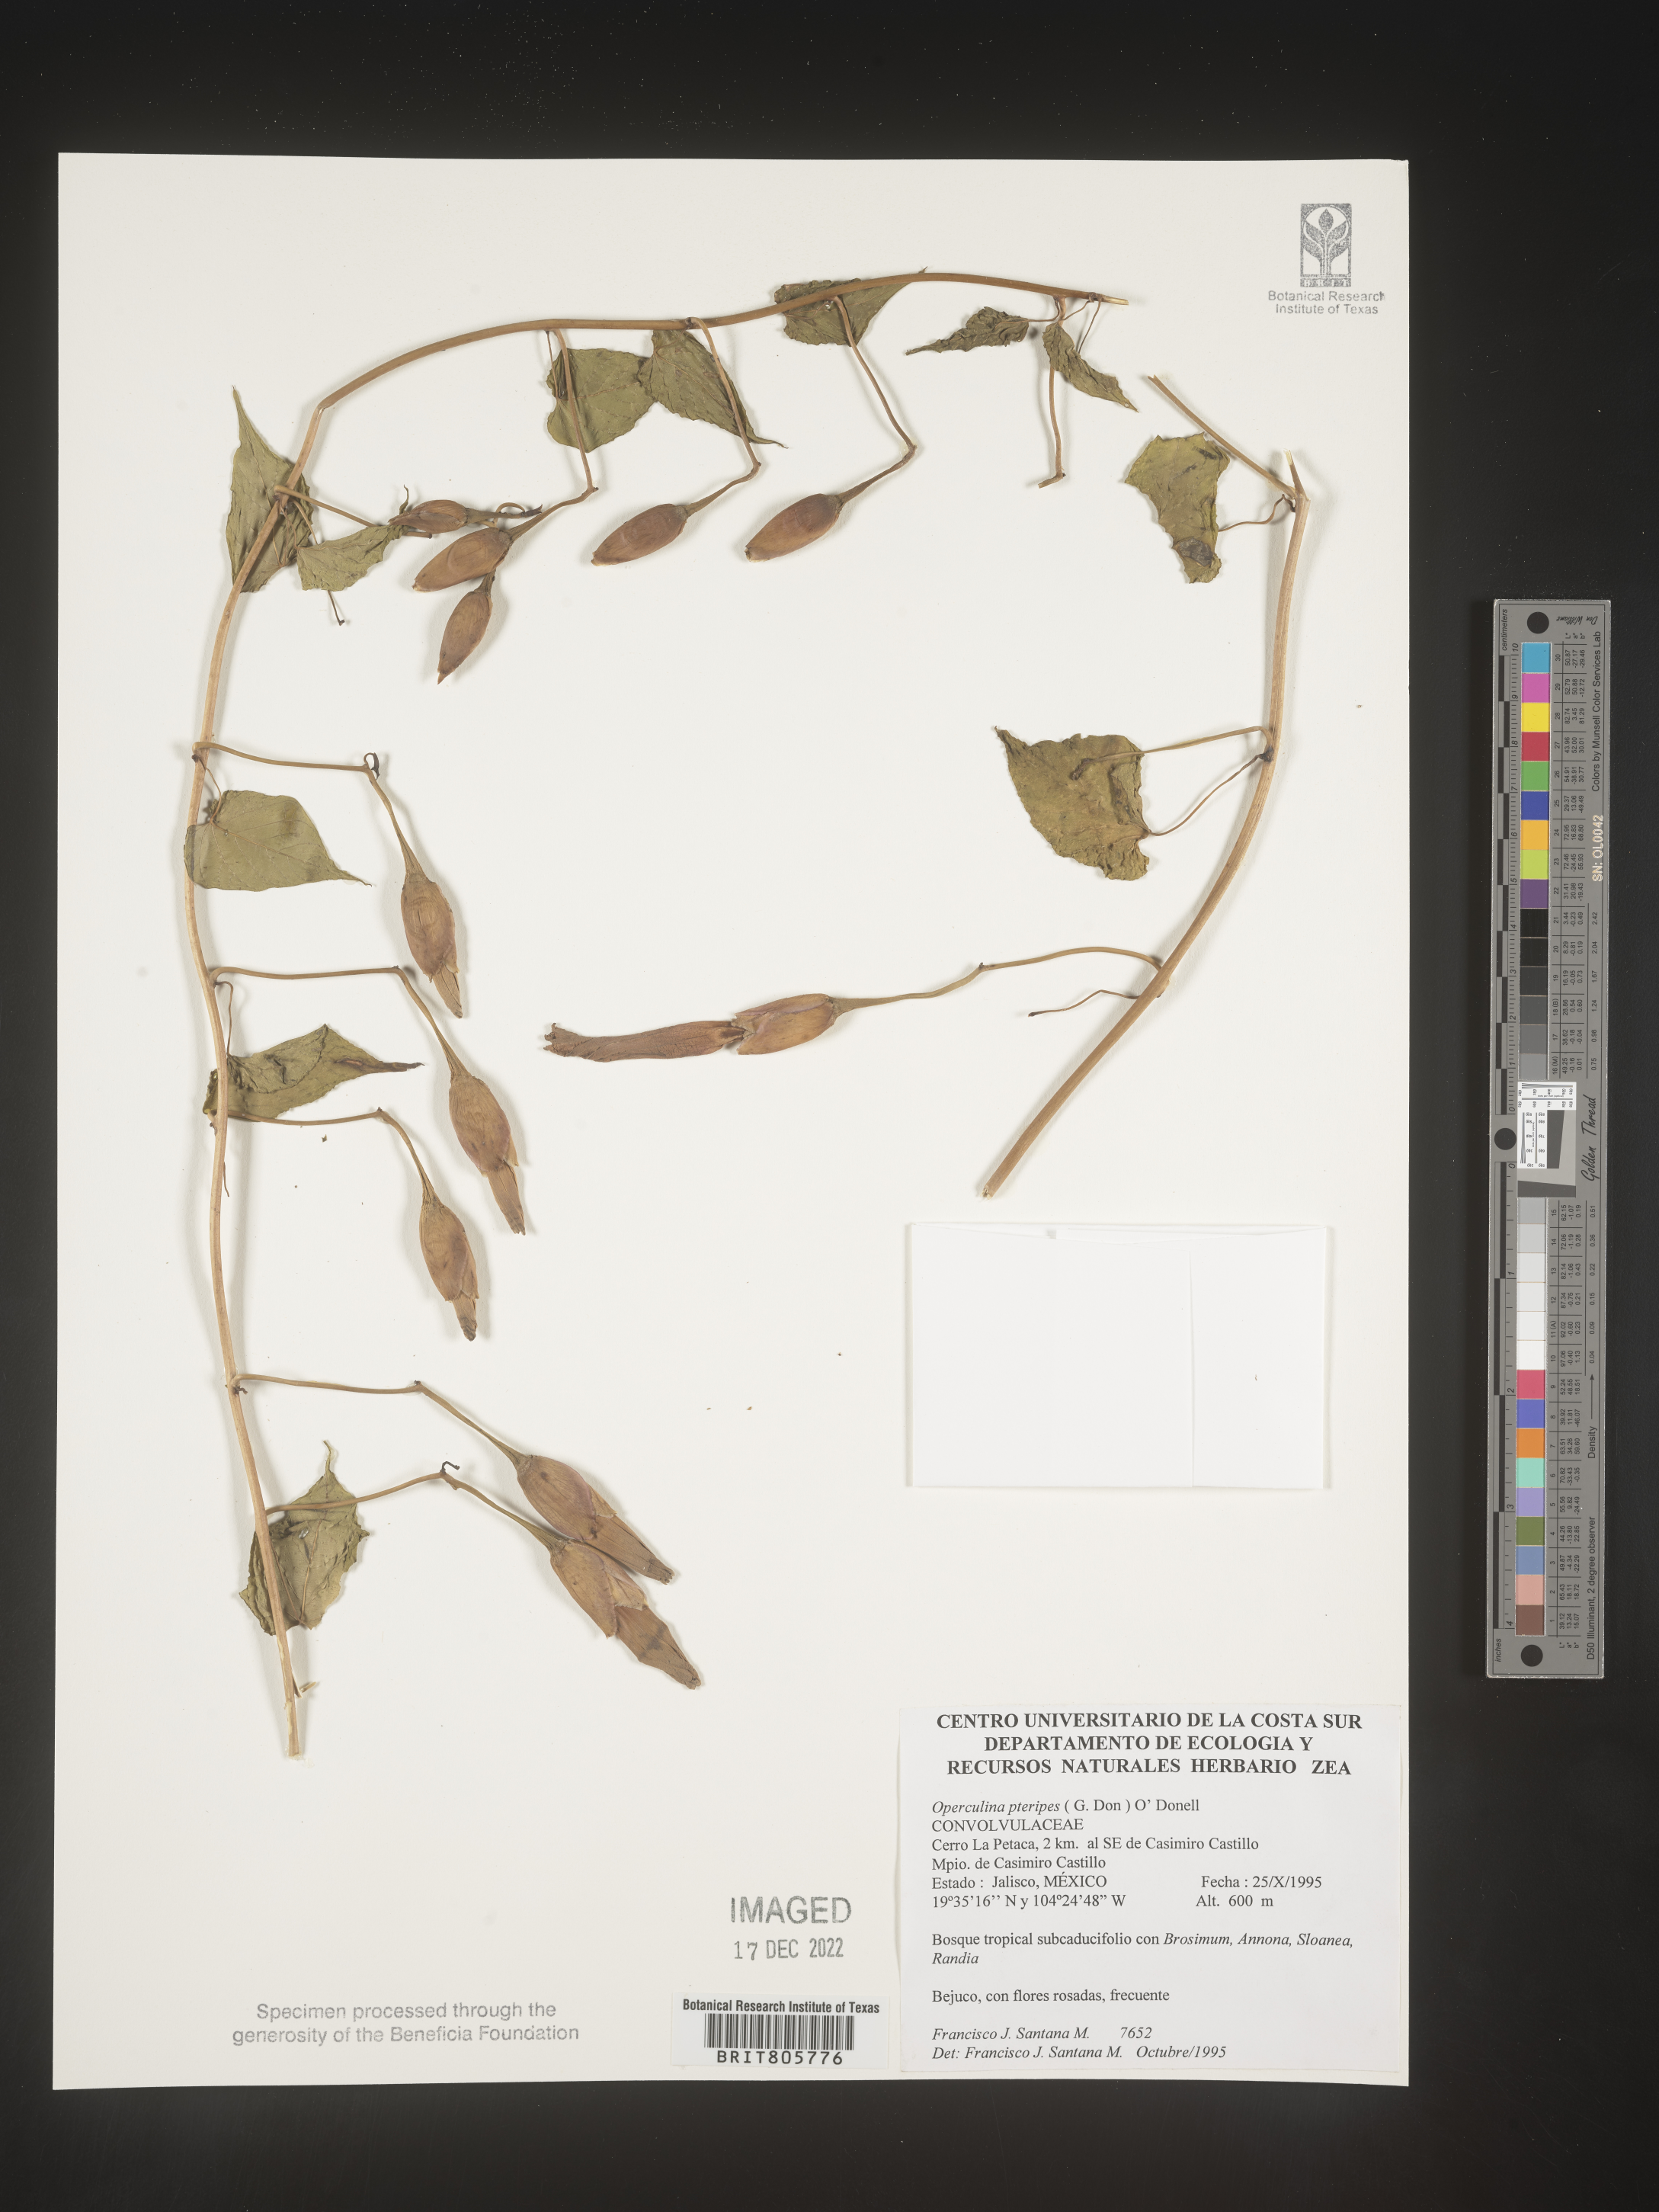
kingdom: Plantae
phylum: Tracheophyta
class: Magnoliopsida
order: Solanales
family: Convolvulaceae
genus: Operculina
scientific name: Operculina
